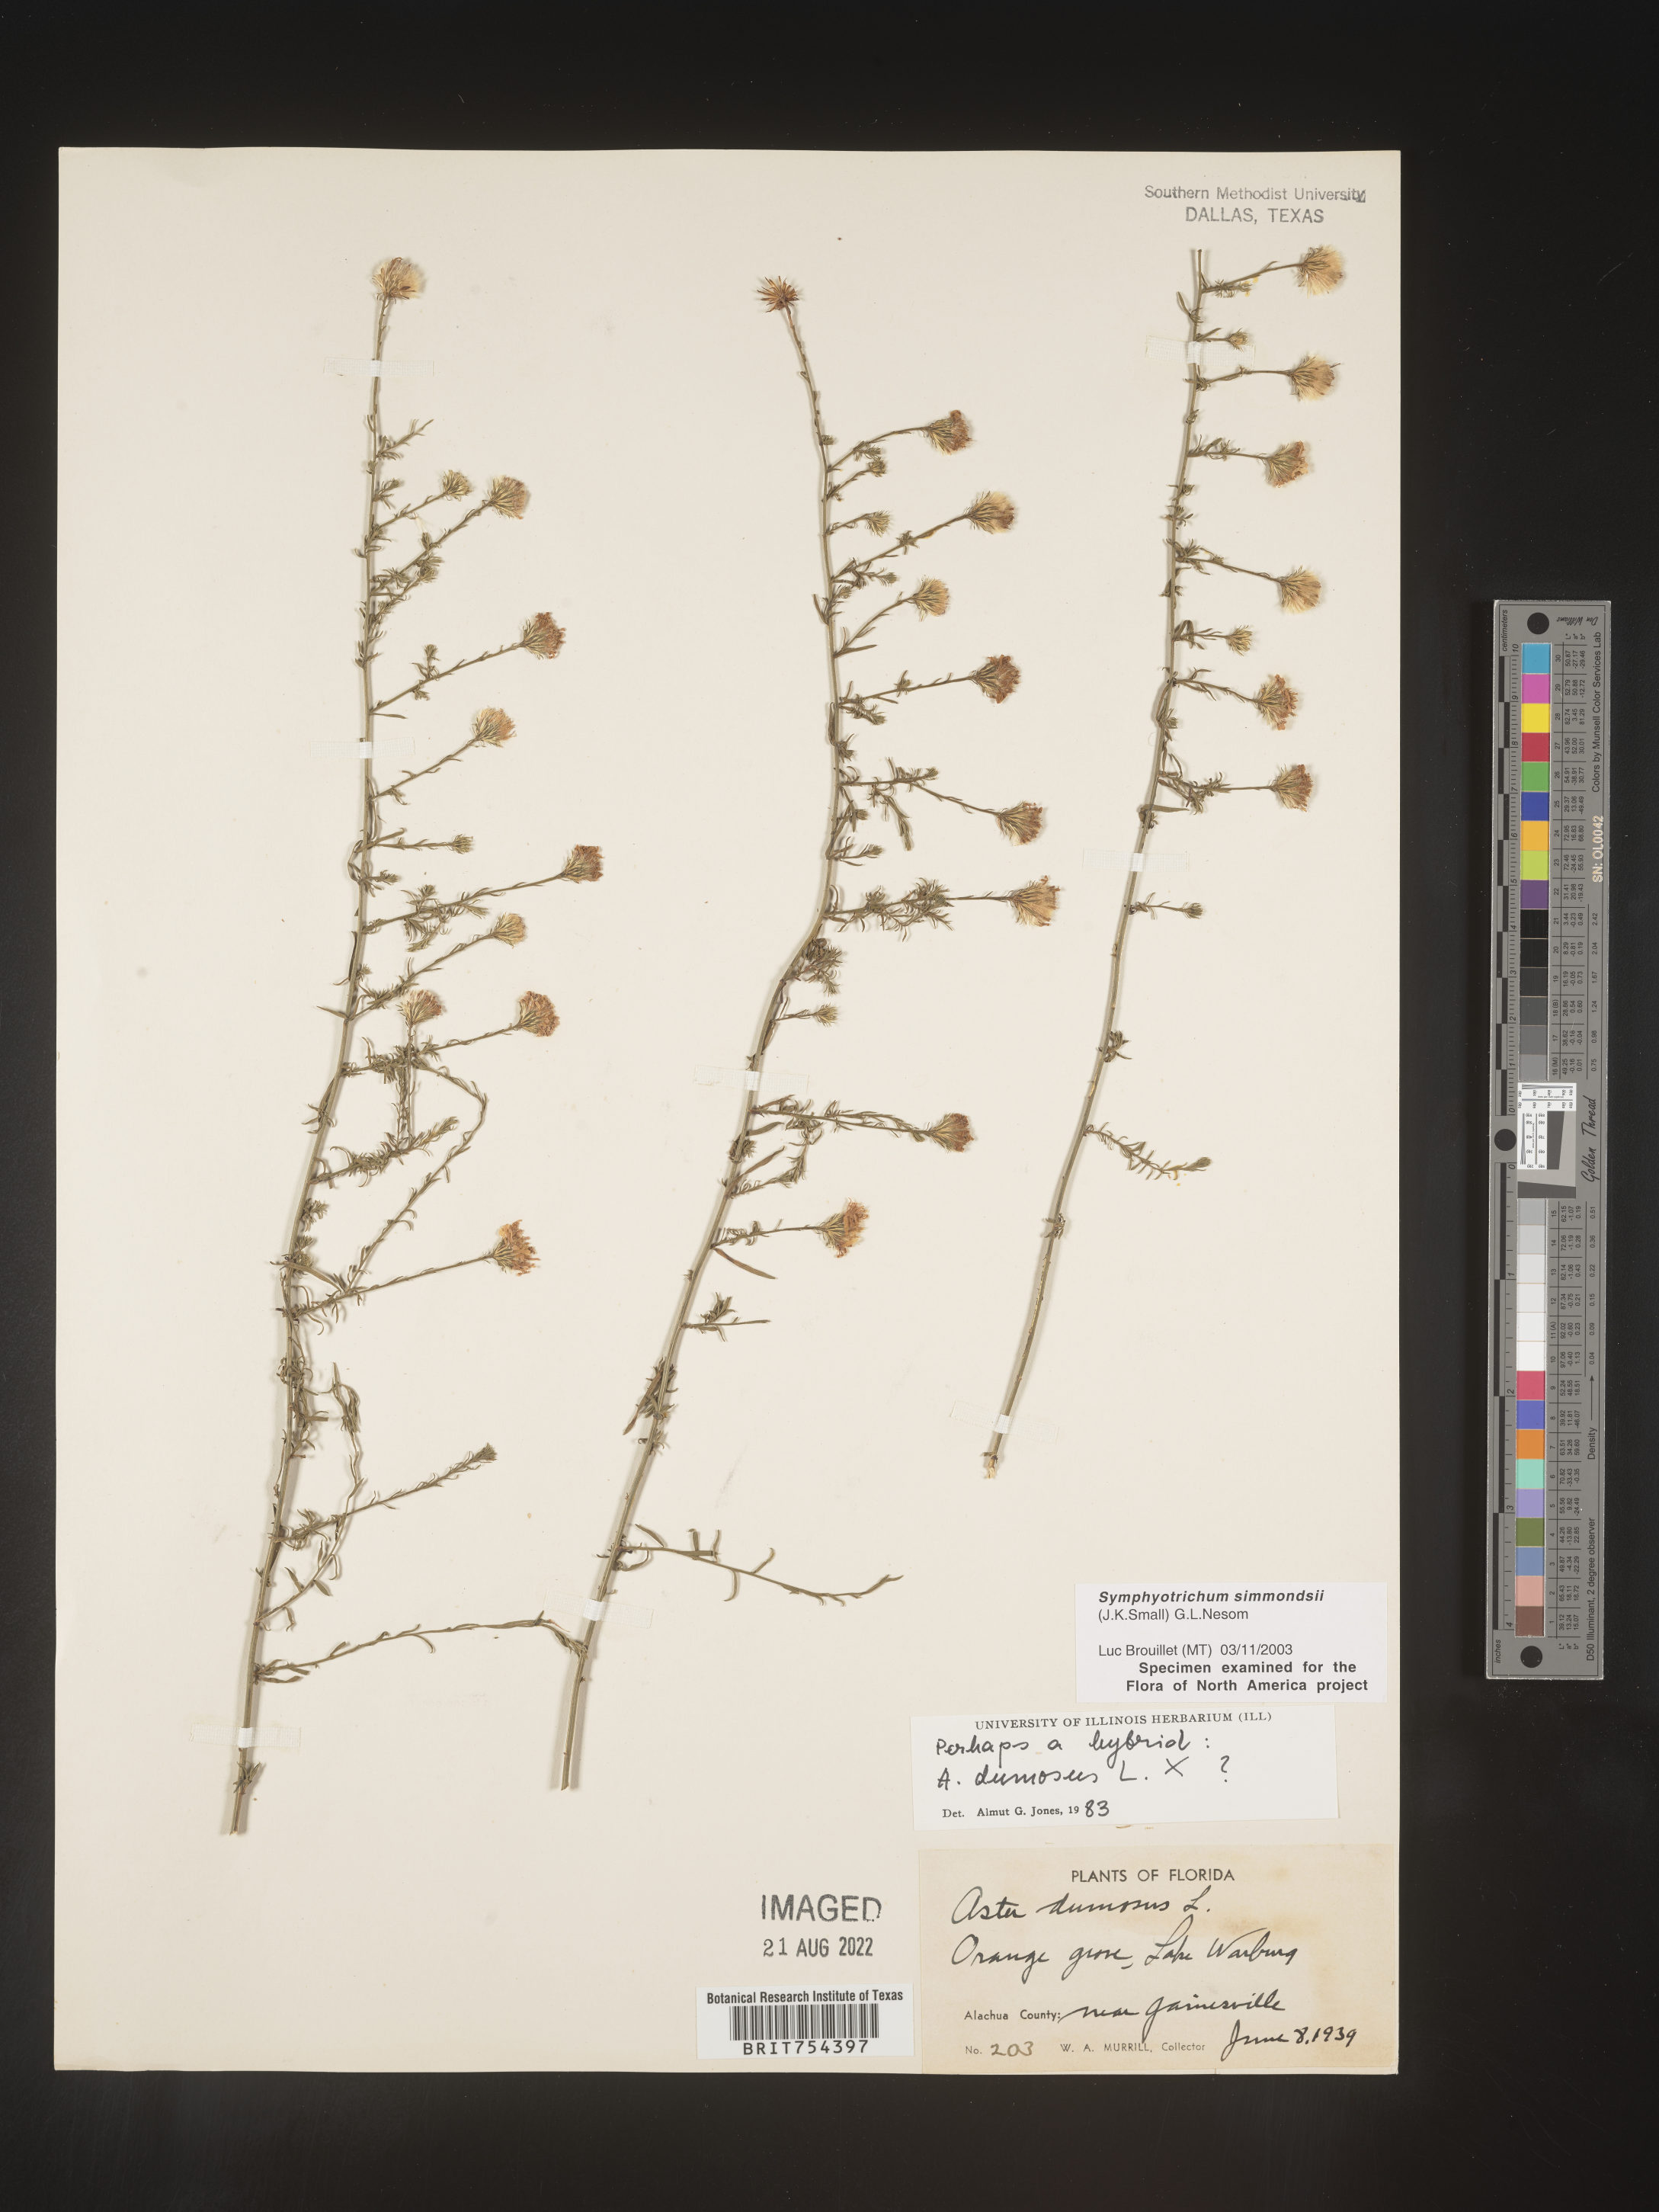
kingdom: Plantae
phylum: Tracheophyta
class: Magnoliopsida
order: Asterales
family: Asteraceae
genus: Symphyotrichum
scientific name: Symphyotrichum simmondsii
